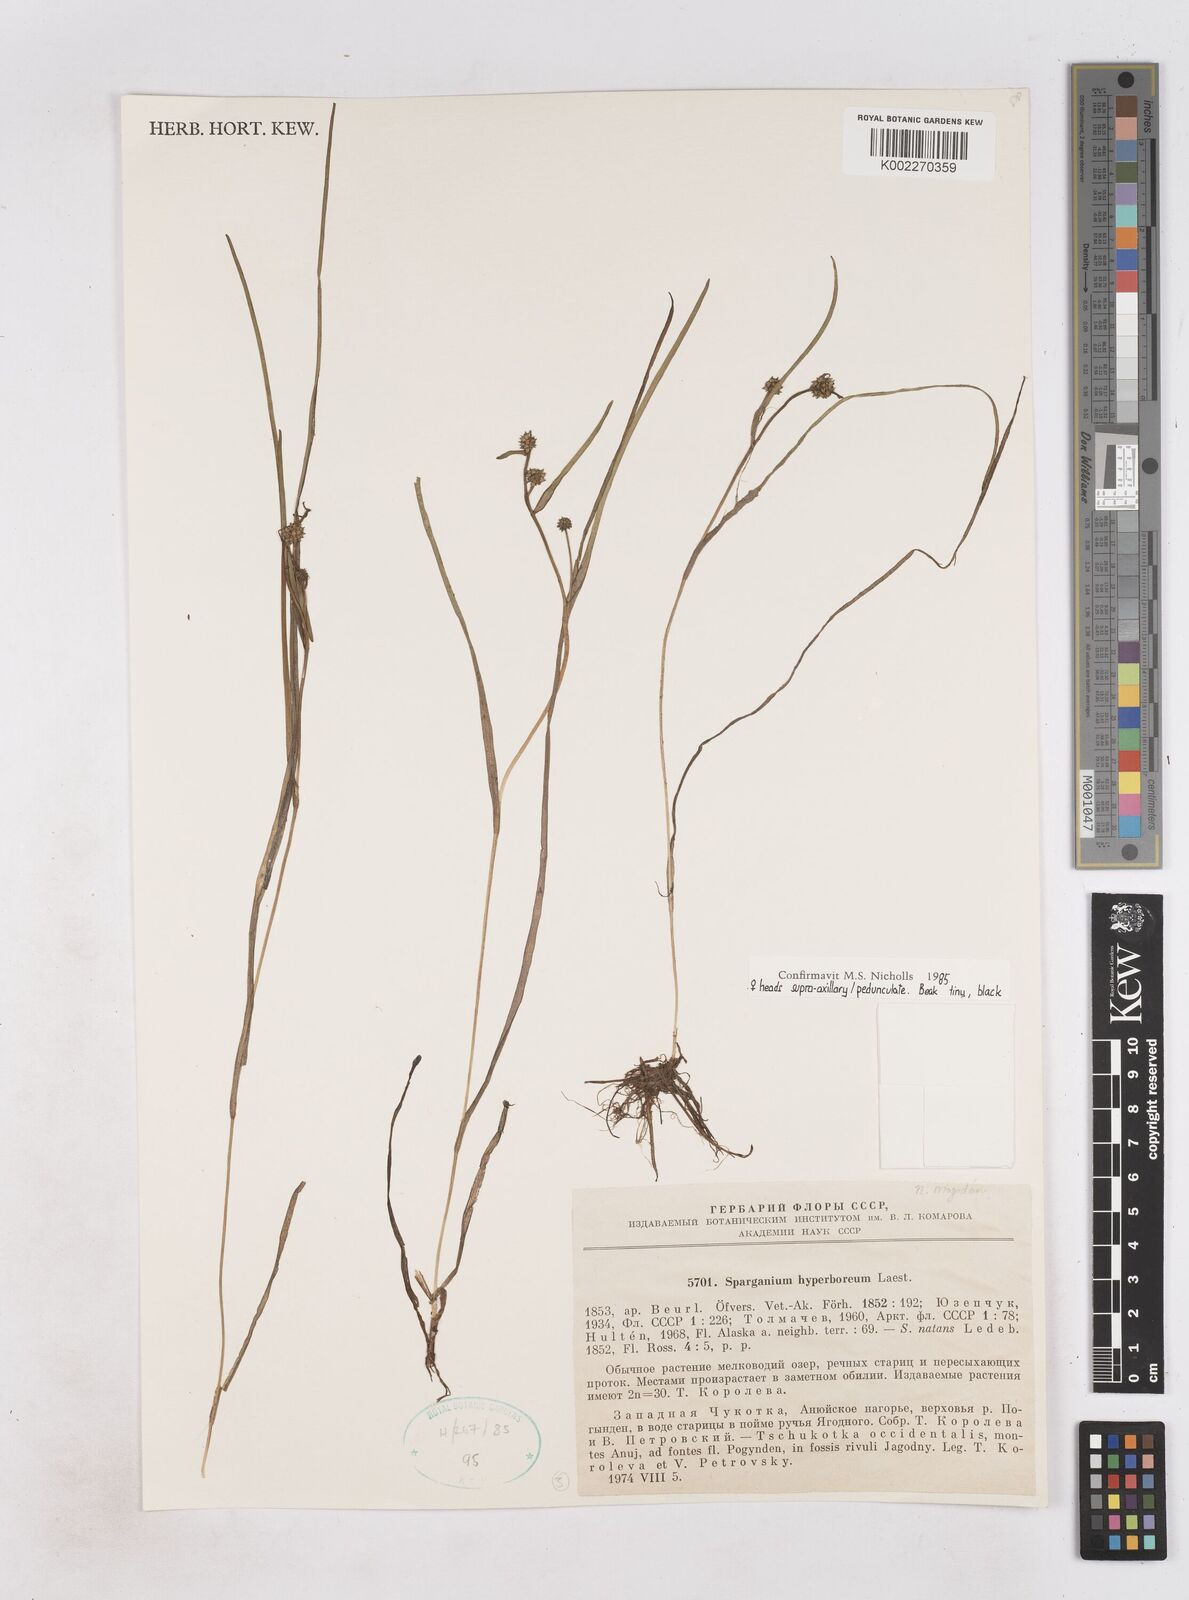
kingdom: Plantae
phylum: Tracheophyta
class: Liliopsida
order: Poales
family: Typhaceae
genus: Sparganium
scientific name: Sparganium hyperboreum
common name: Arctic burreed
